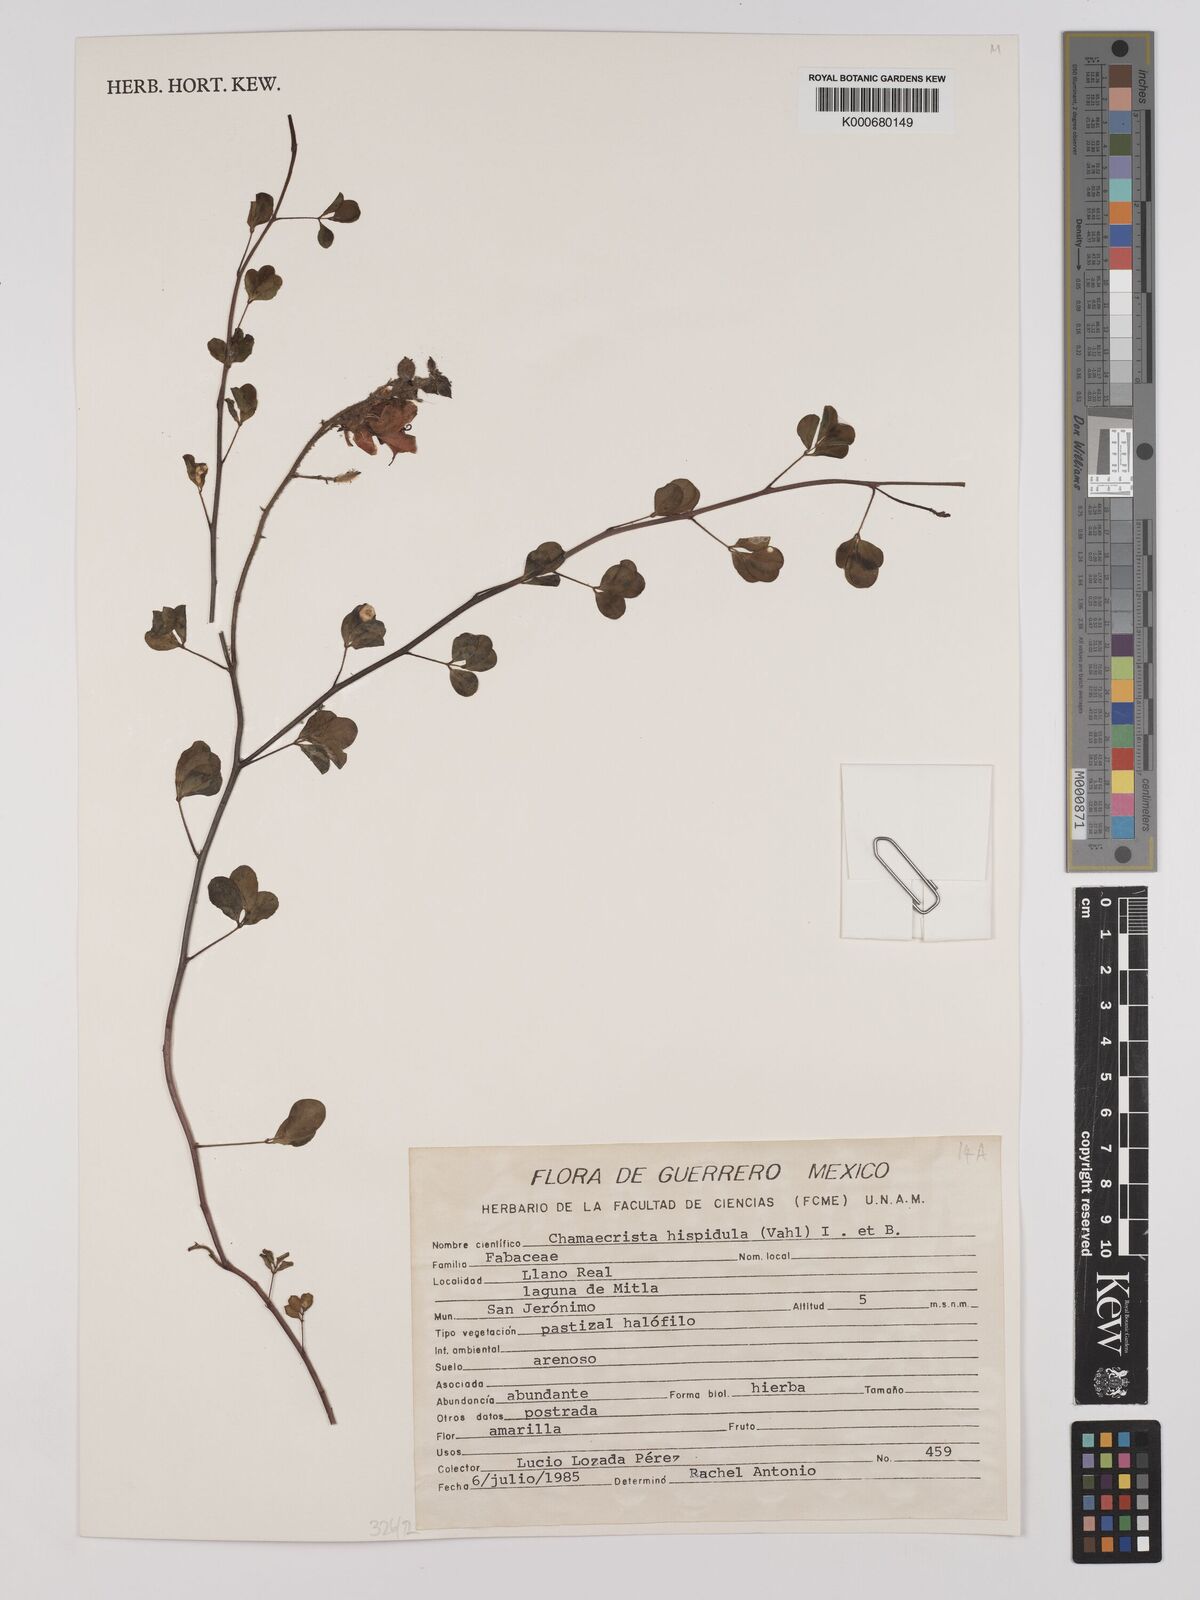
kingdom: Plantae
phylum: Tracheophyta
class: Magnoliopsida
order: Fabales
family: Fabaceae
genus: Chamaecrista
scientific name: Chamaecrista hispidula
